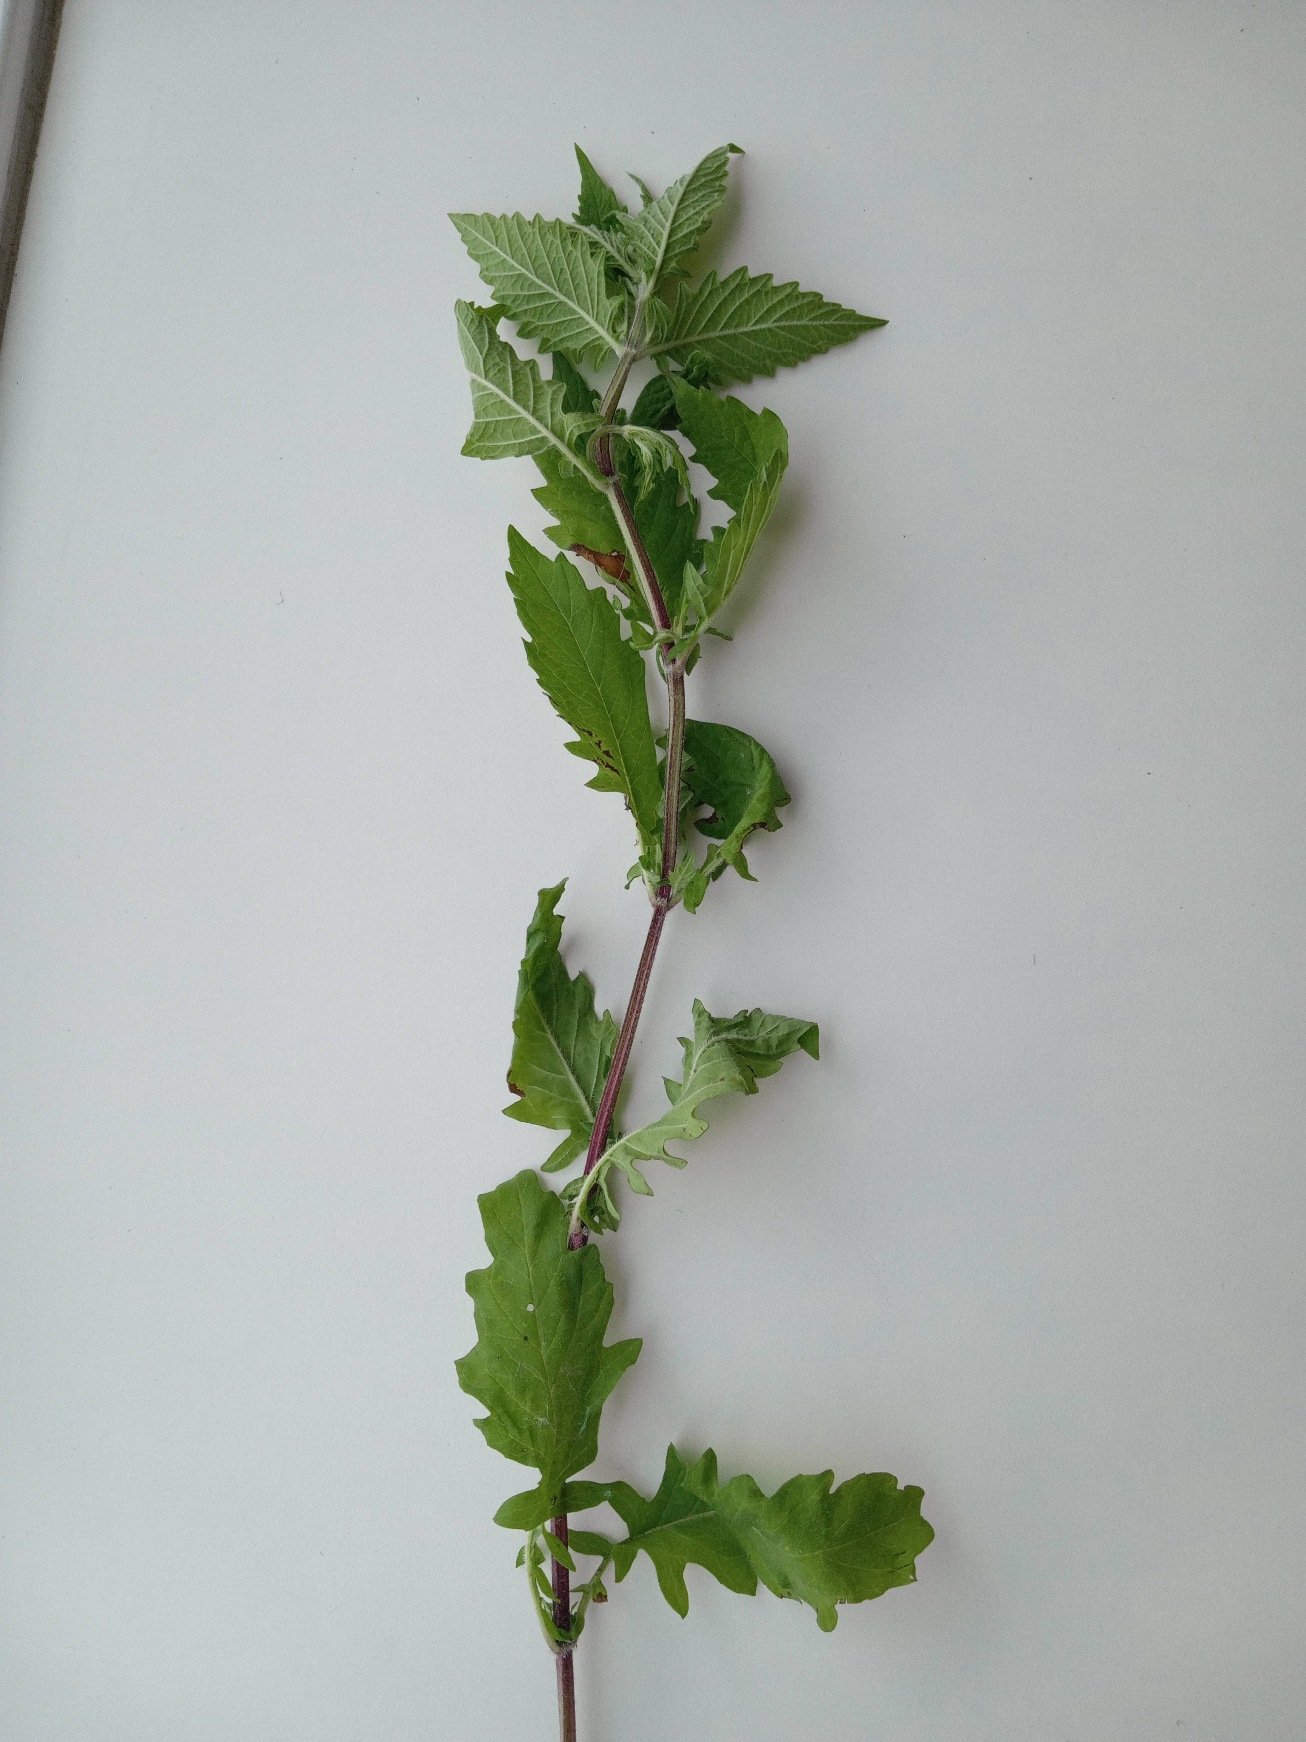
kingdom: Plantae
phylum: Tracheophyta
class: Magnoliopsida
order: Lamiales
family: Lamiaceae
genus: Lycopus
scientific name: Lycopus europaeus
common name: Sværtevæld
